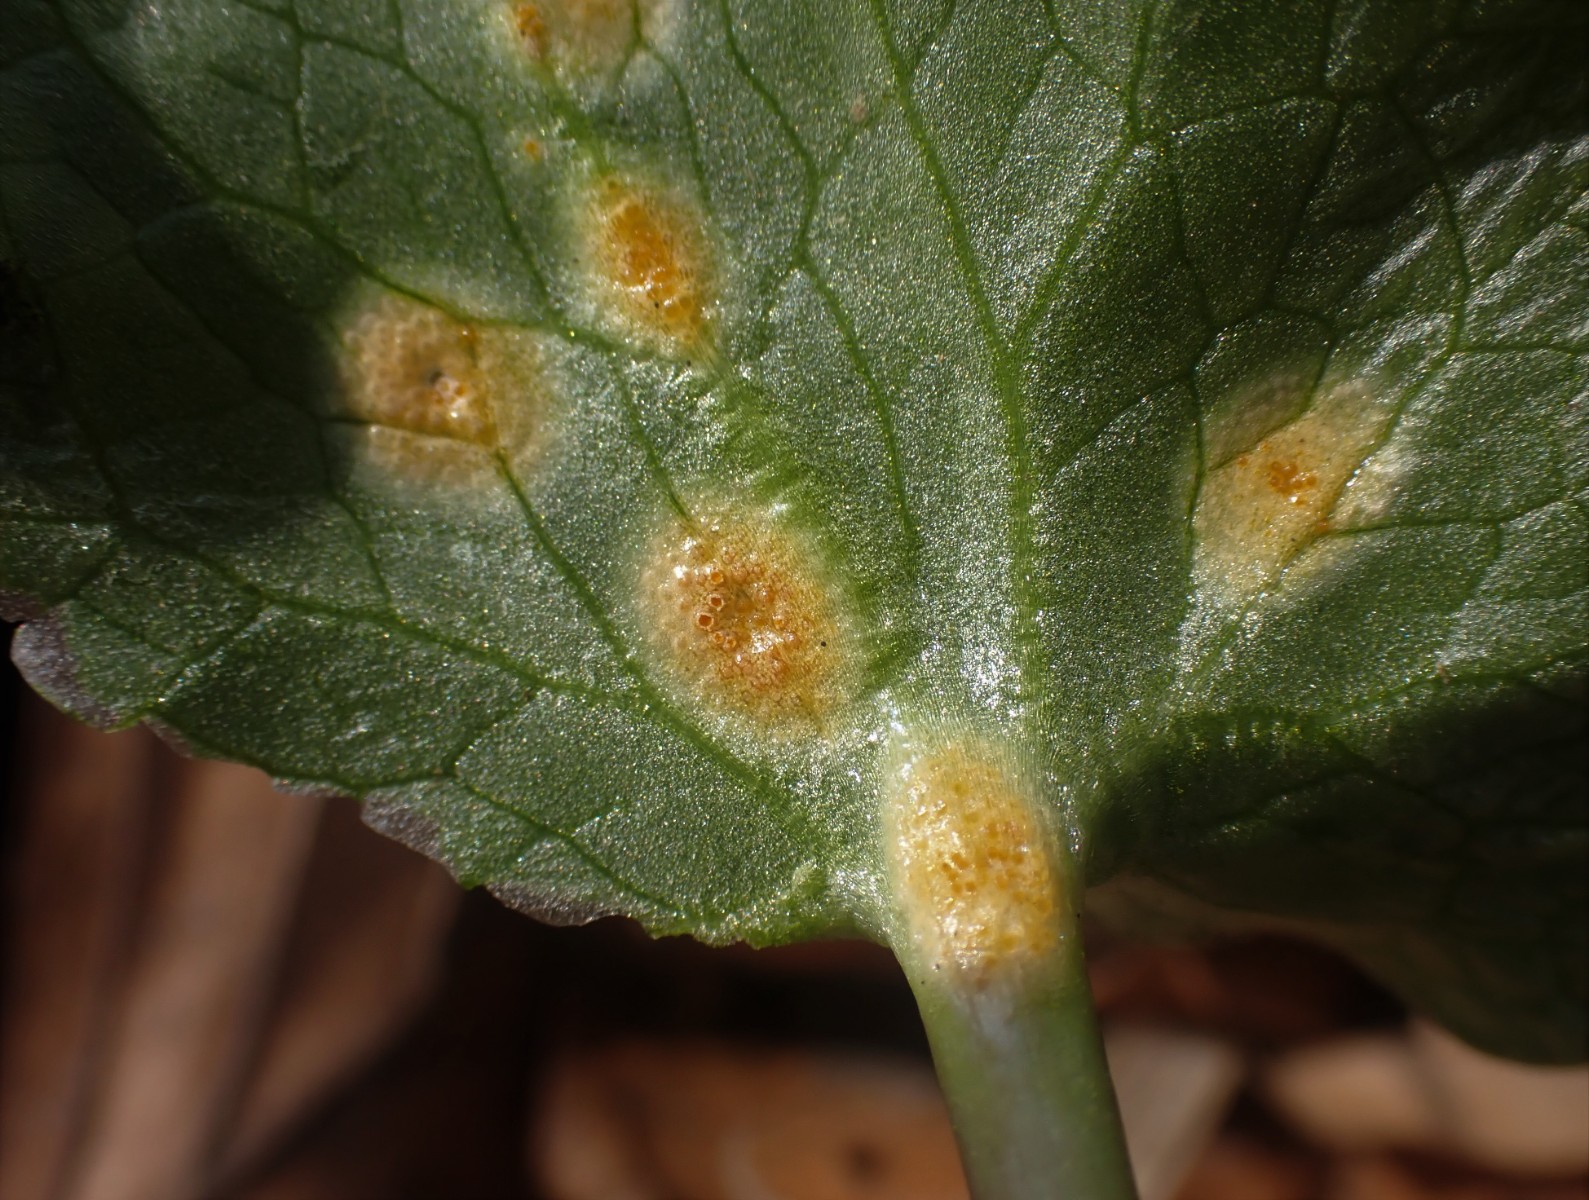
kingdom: Fungi
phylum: Basidiomycota
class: Pucciniomycetes
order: Pucciniales
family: Pucciniaceae
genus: Uromyces
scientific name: Uromyces dactylidis
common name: ranunkel-encellerust
